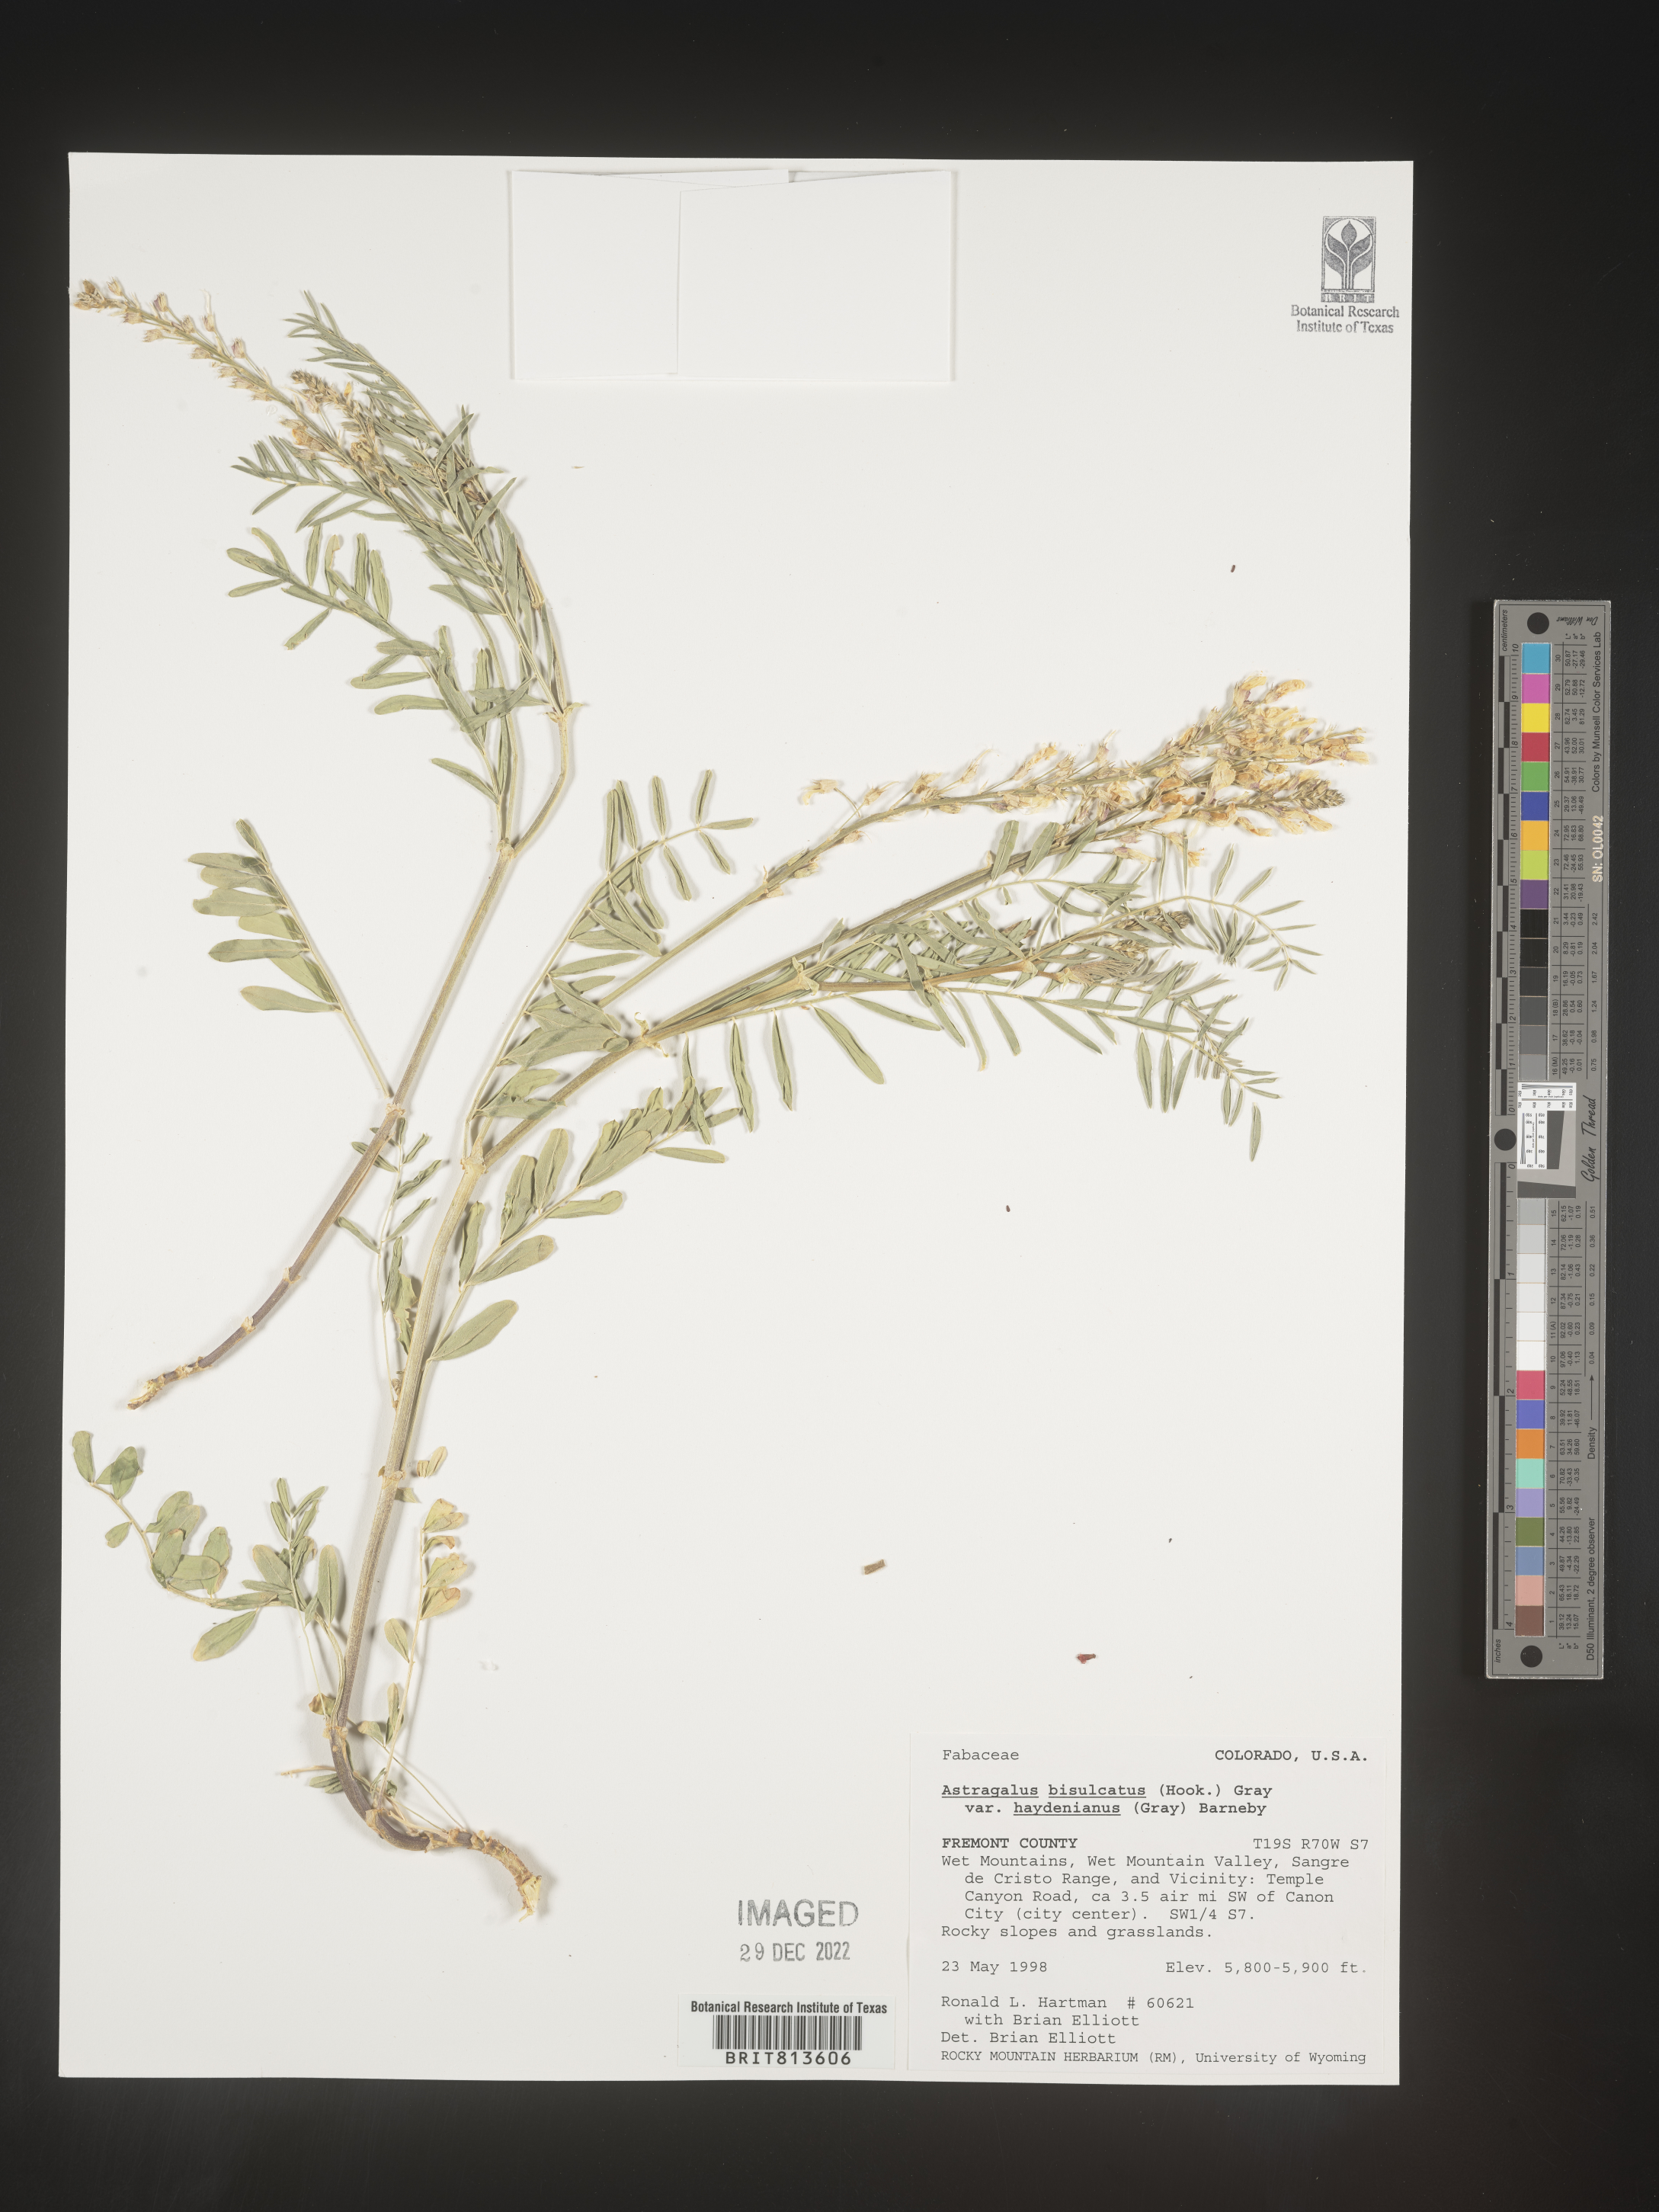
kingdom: Plantae
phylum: Tracheophyta
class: Magnoliopsida
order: Fabales
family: Fabaceae
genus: Astragalus
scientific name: Astragalus bisulcatus
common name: Two-groove milk-vetch
